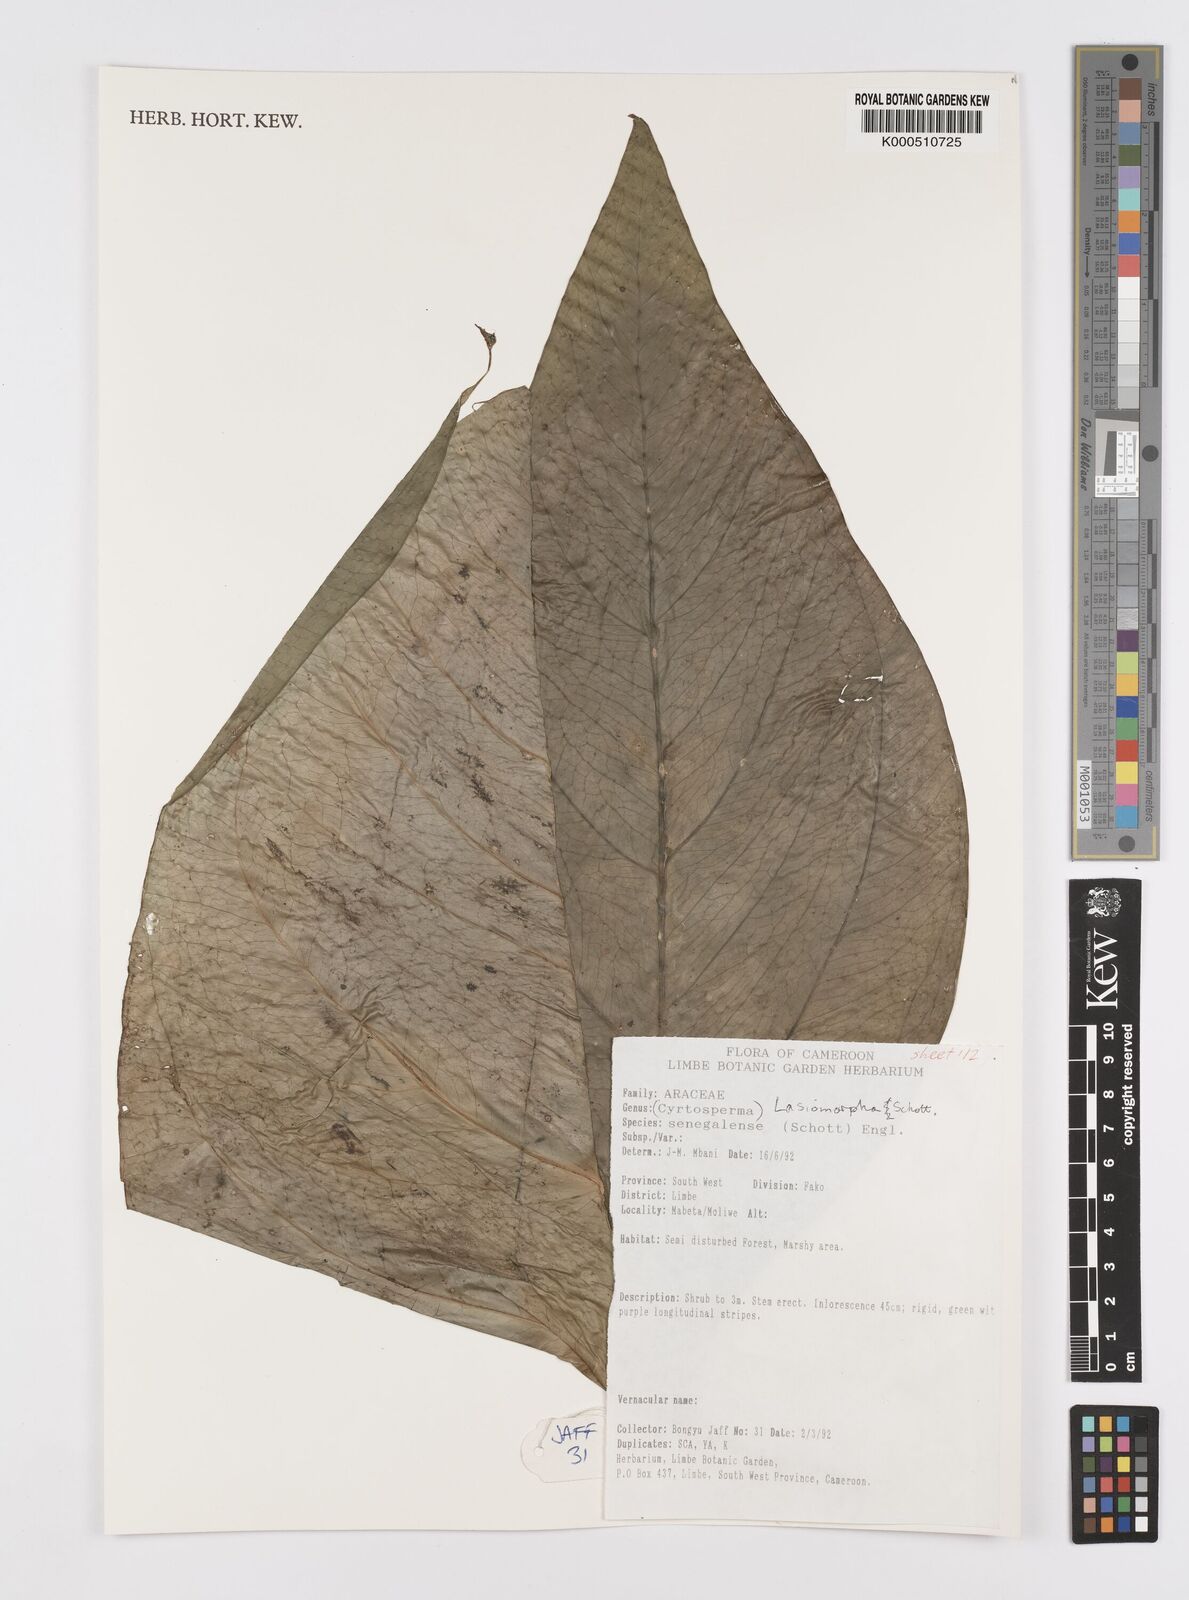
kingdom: Plantae
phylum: Tracheophyta
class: Liliopsida
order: Alismatales
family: Araceae
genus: Lasimorpha
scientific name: Lasimorpha senegalensis
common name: Swamp arum
